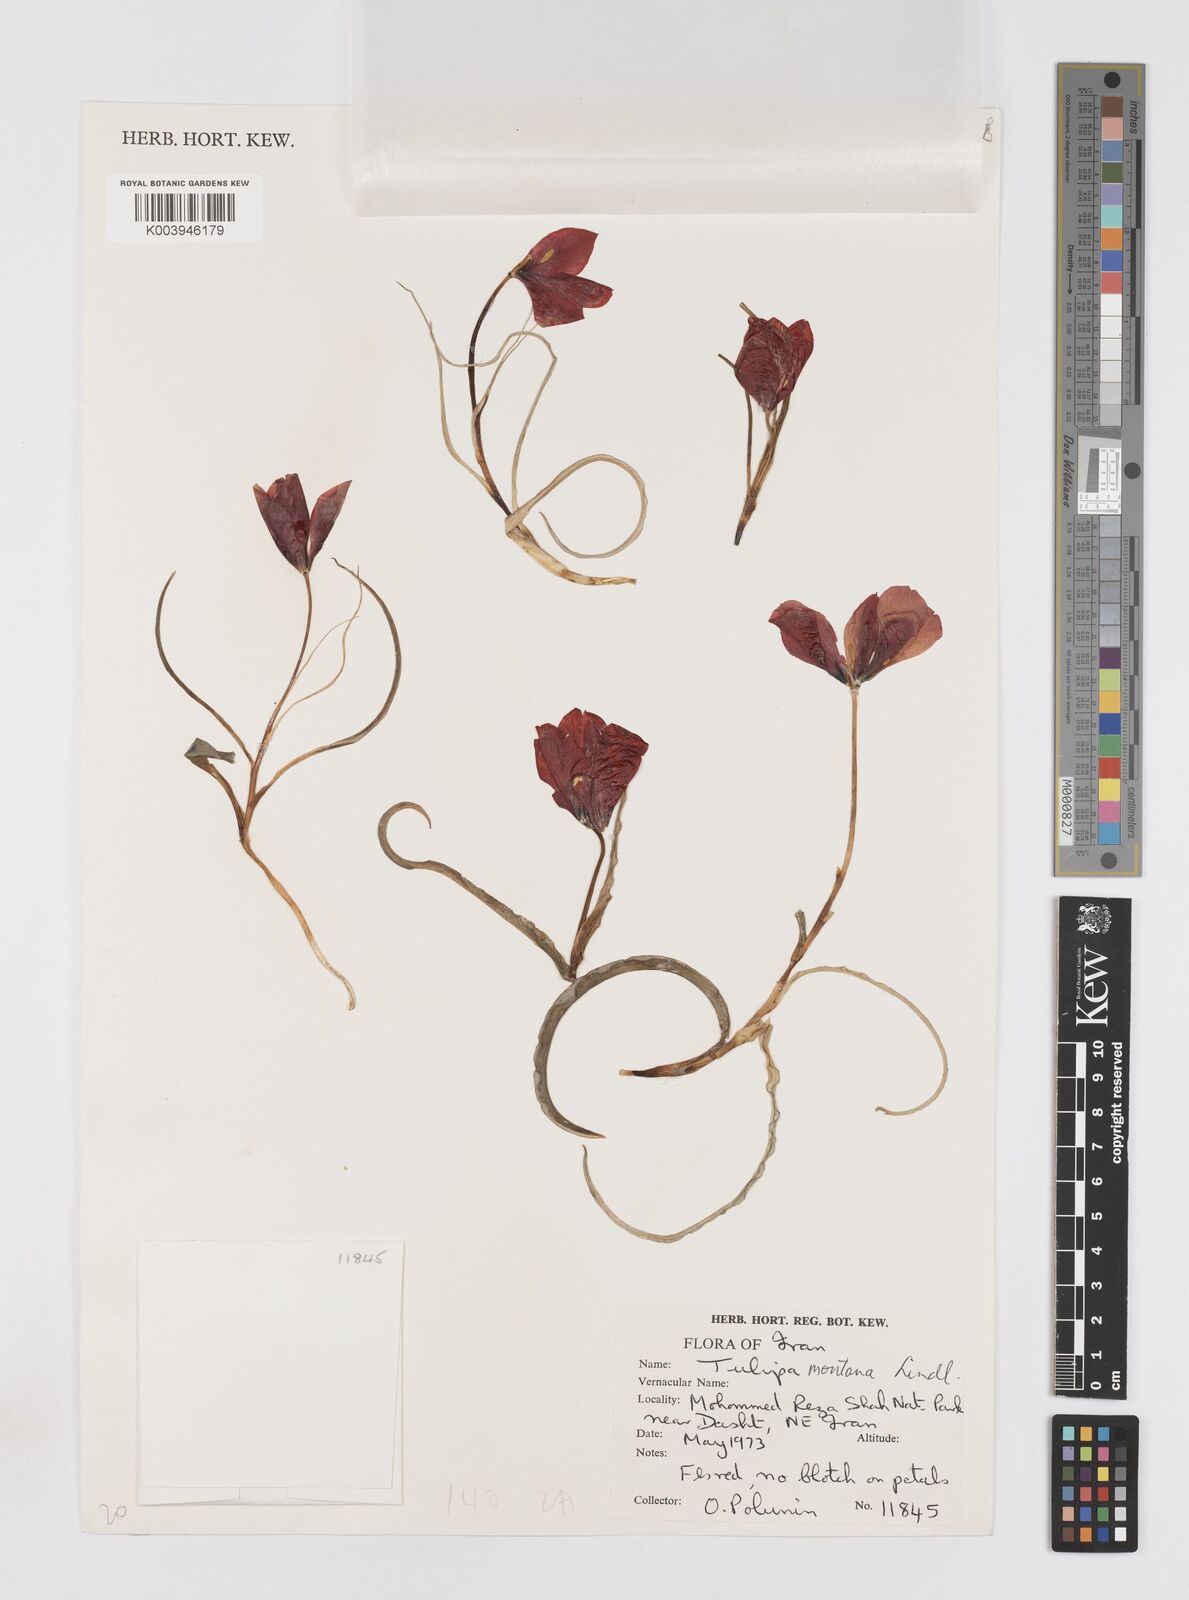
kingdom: Plantae
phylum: Tracheophyta
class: Liliopsida
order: Liliales
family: Liliaceae
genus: Tulipa
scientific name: Tulipa montana
